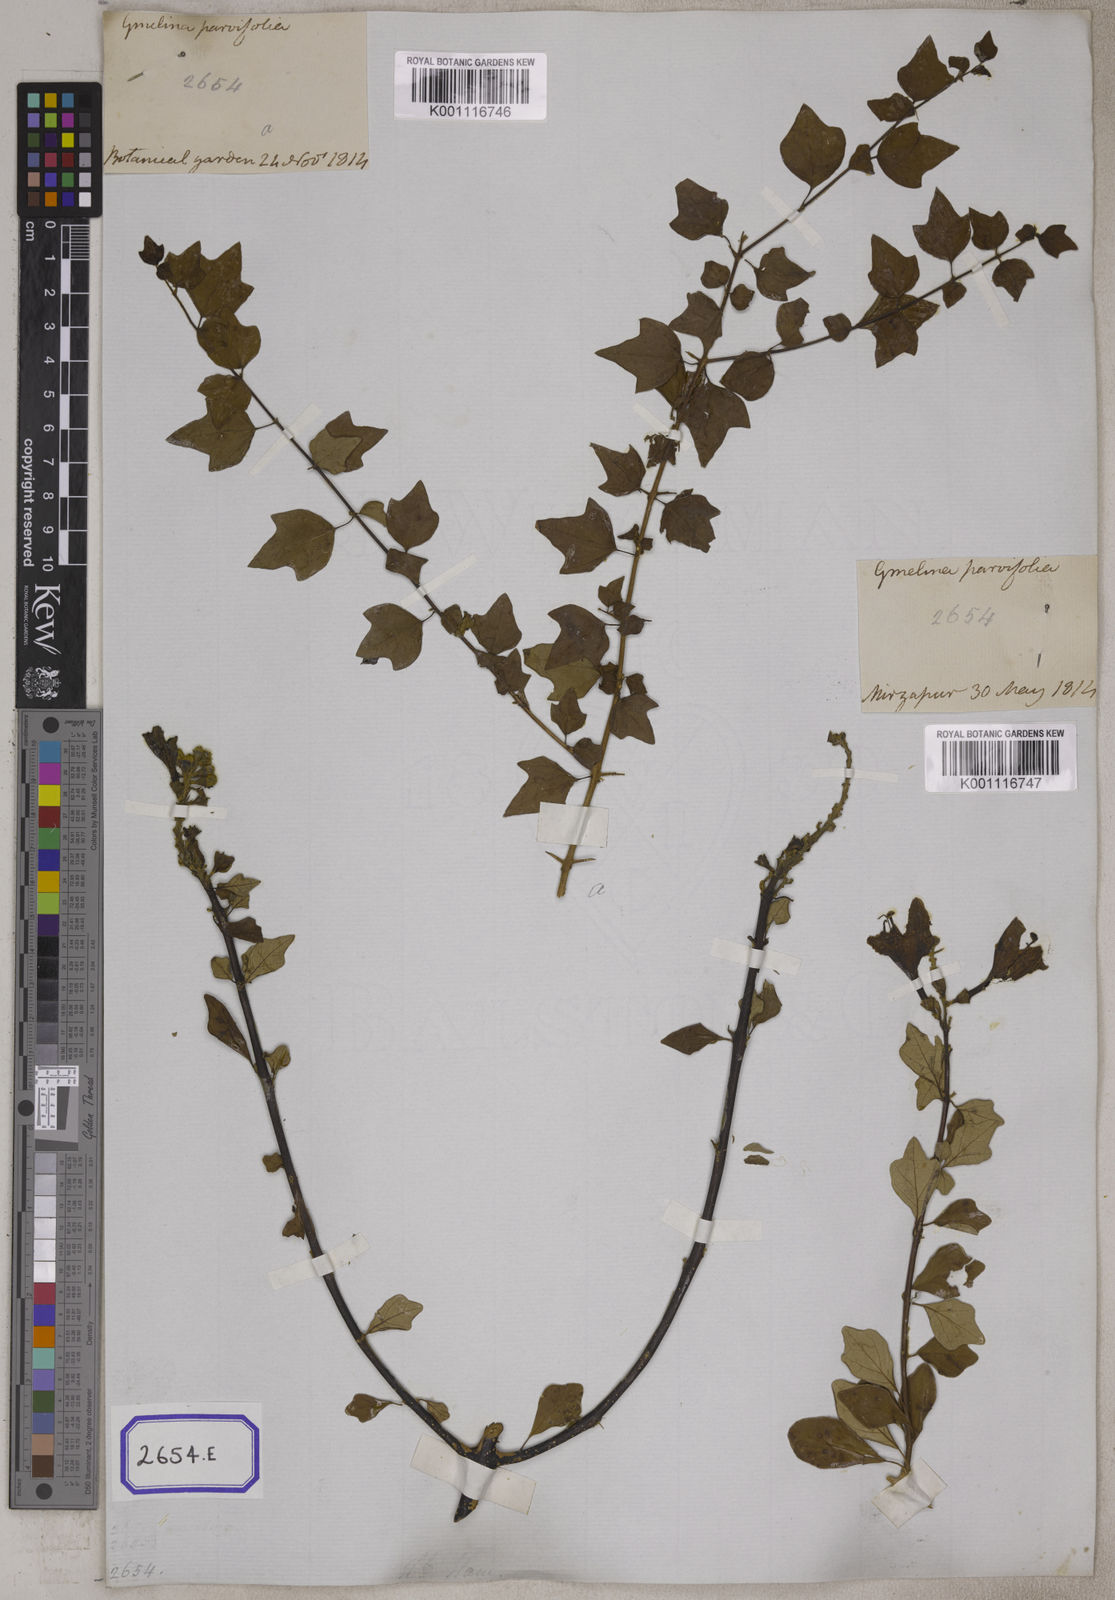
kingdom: Plantae
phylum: Tracheophyta
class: Magnoliopsida
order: Lamiales
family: Lamiaceae
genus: Gmelina
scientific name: Gmelina asiatica
